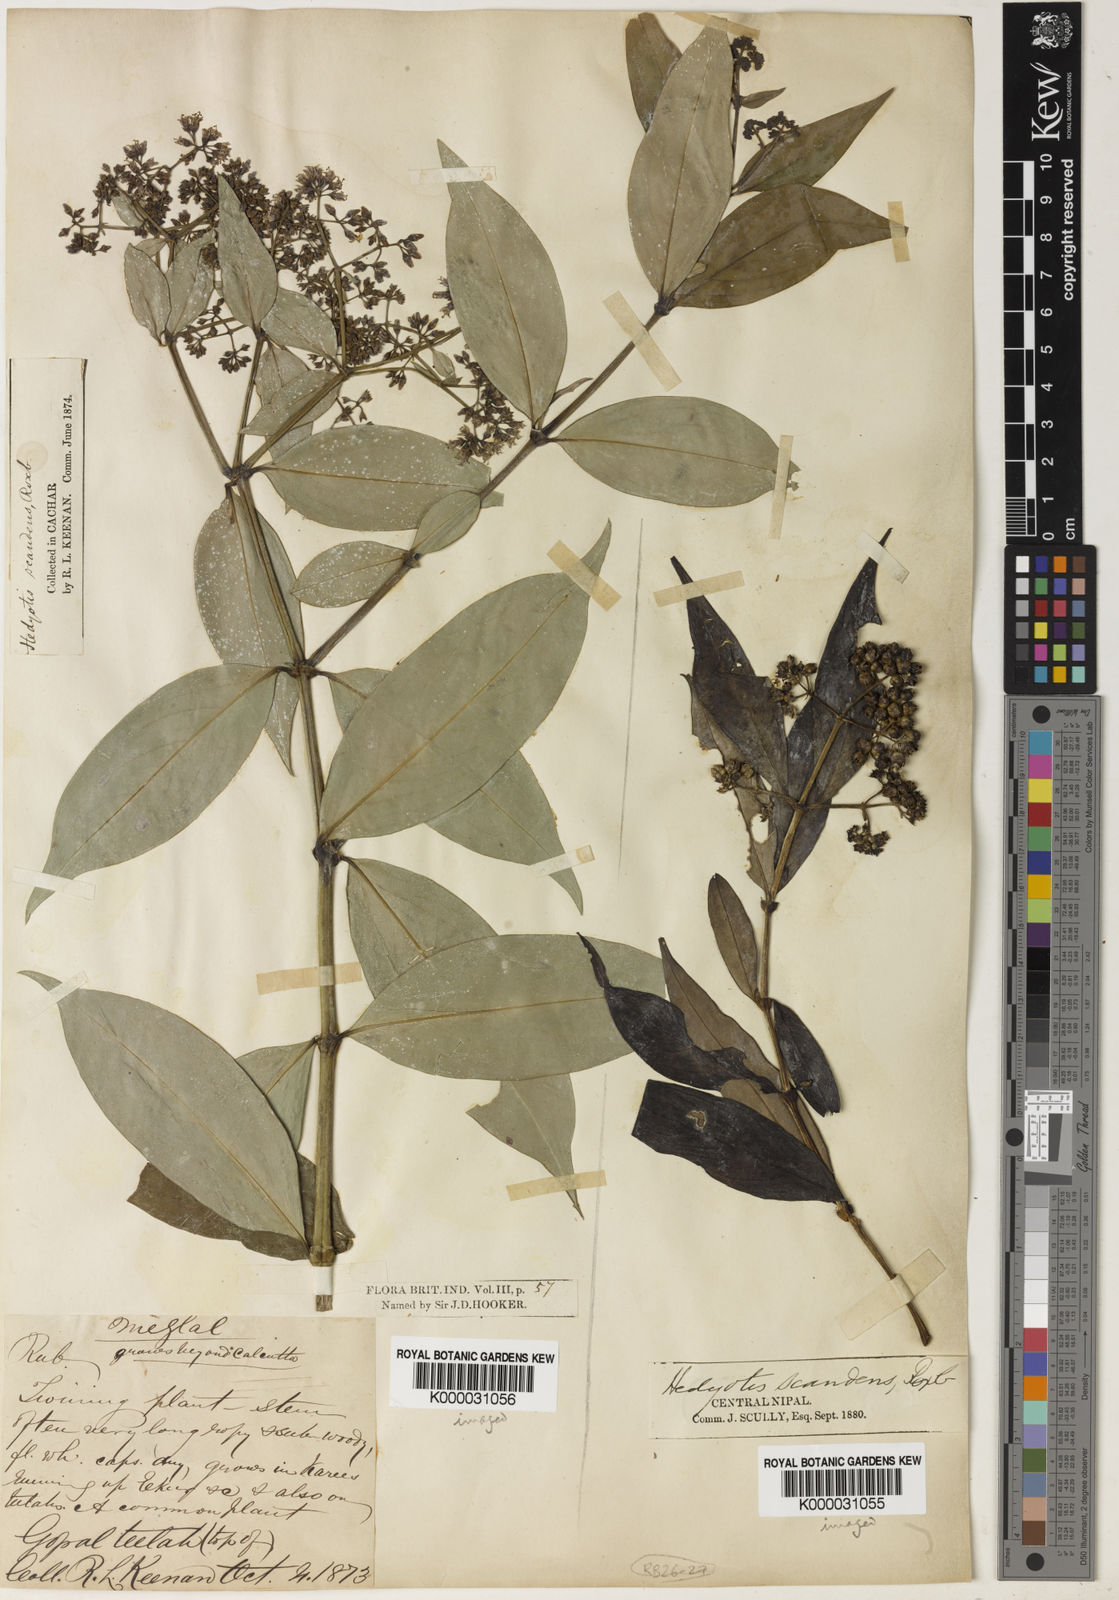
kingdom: Plantae
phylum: Tracheophyta
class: Magnoliopsida
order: Gentianales
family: Rubiaceae
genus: Dimetia
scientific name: Dimetia scandens
